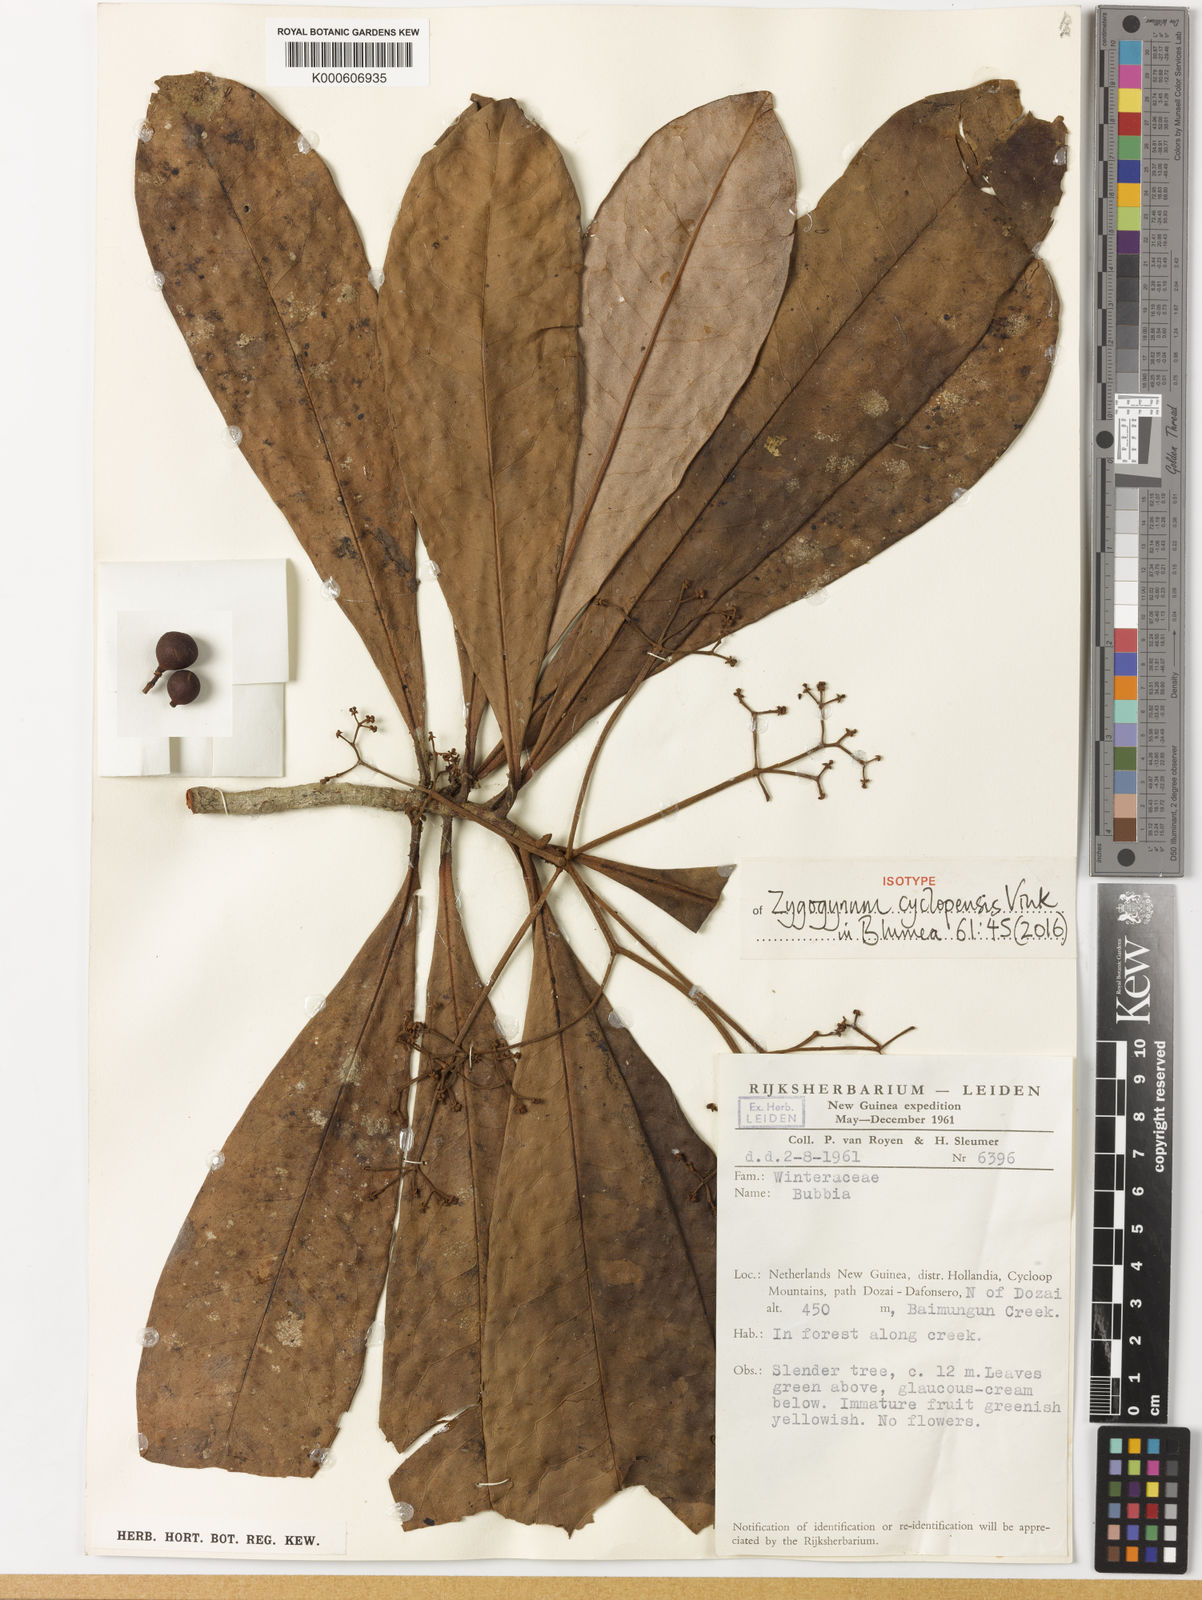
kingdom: Plantae
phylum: Tracheophyta
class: Magnoliopsida
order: Canellales
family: Winteraceae
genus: Zygogynum
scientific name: Zygogynum cyclopensis
